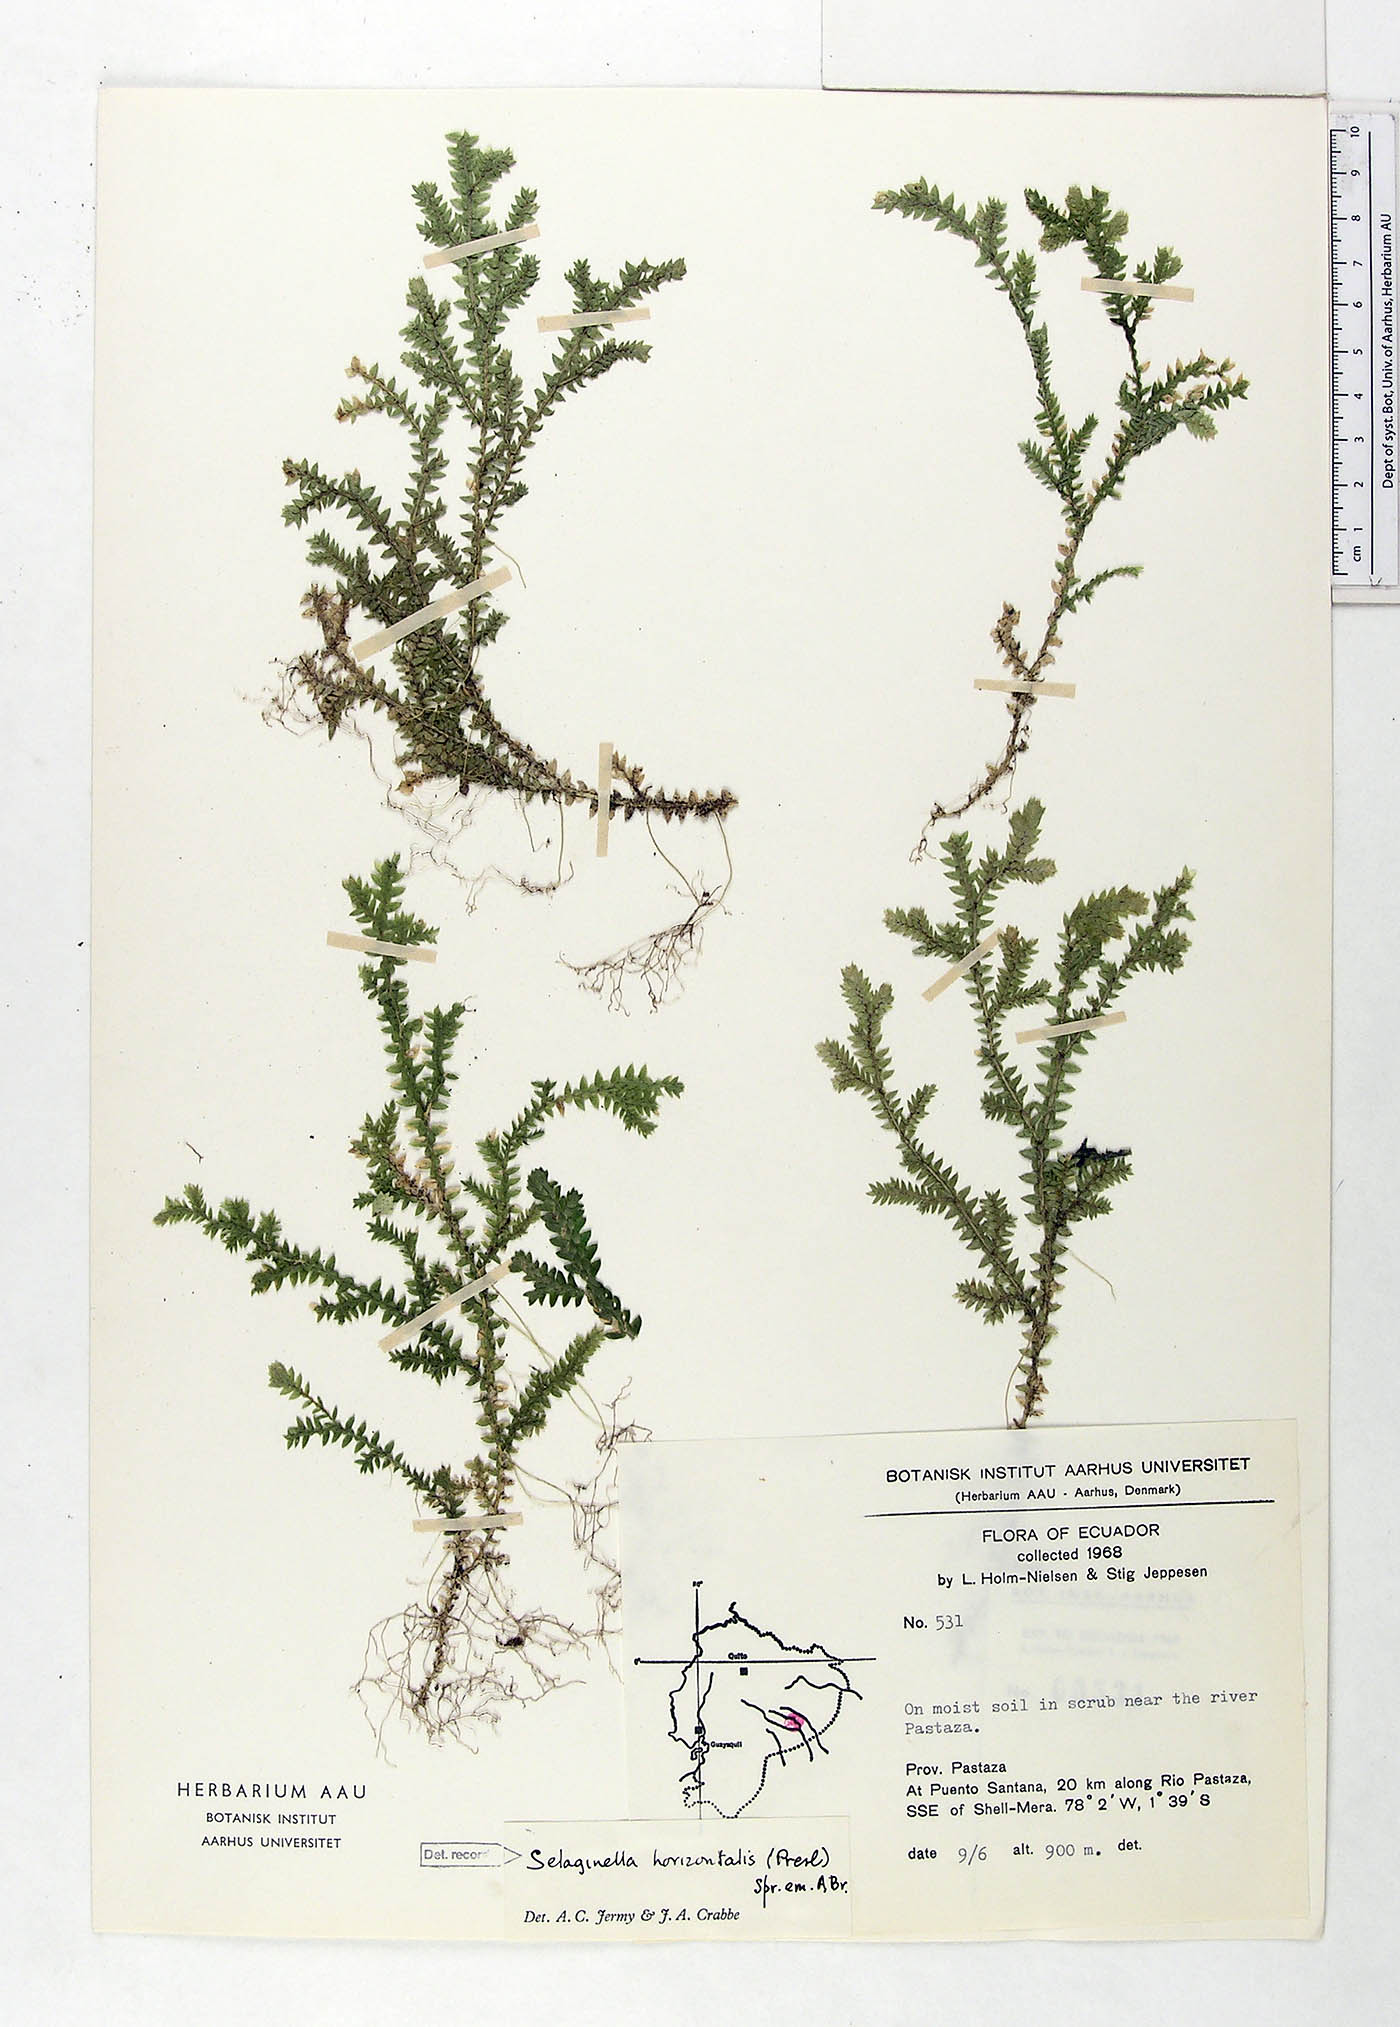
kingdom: Plantae
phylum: Tracheophyta
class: Lycopodiopsida
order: Selaginellales
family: Selaginellaceae
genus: Selaginella
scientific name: Selaginella horizontalis
